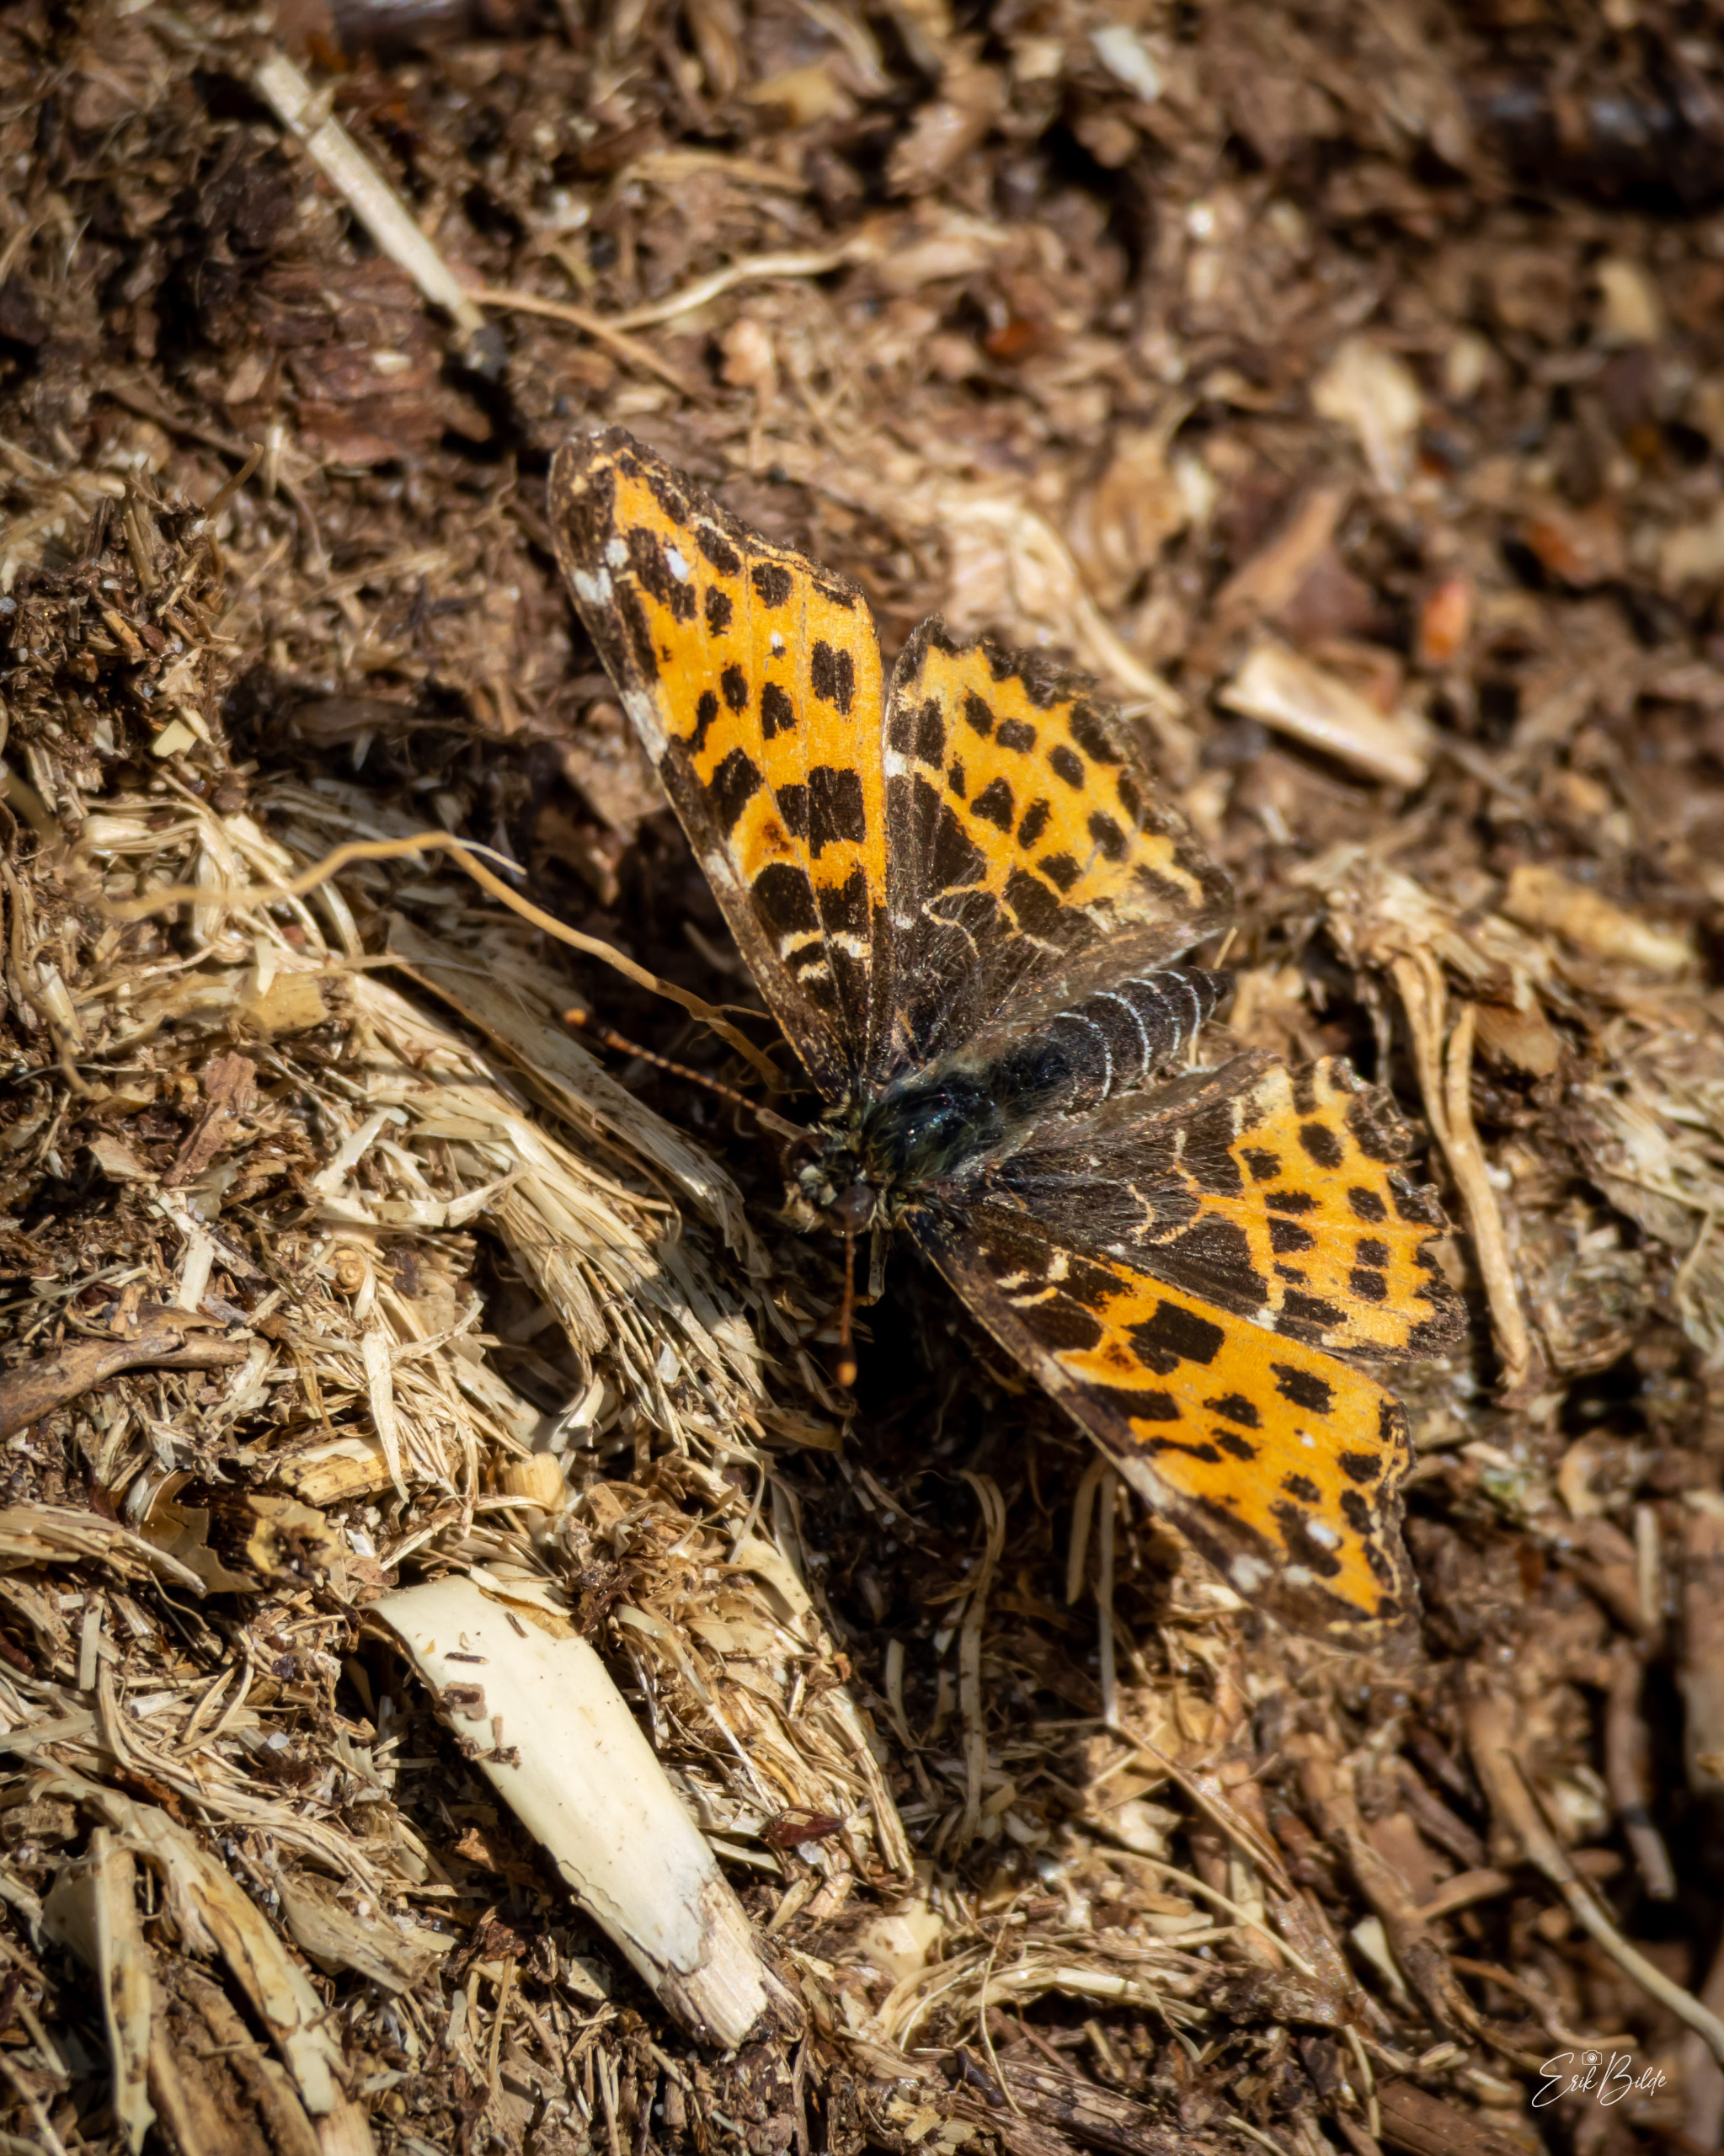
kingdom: Animalia
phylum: Arthropoda
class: Insecta
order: Lepidoptera
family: Nymphalidae
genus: Araschnia
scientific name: Araschnia levana
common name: Nældesommerfugl
